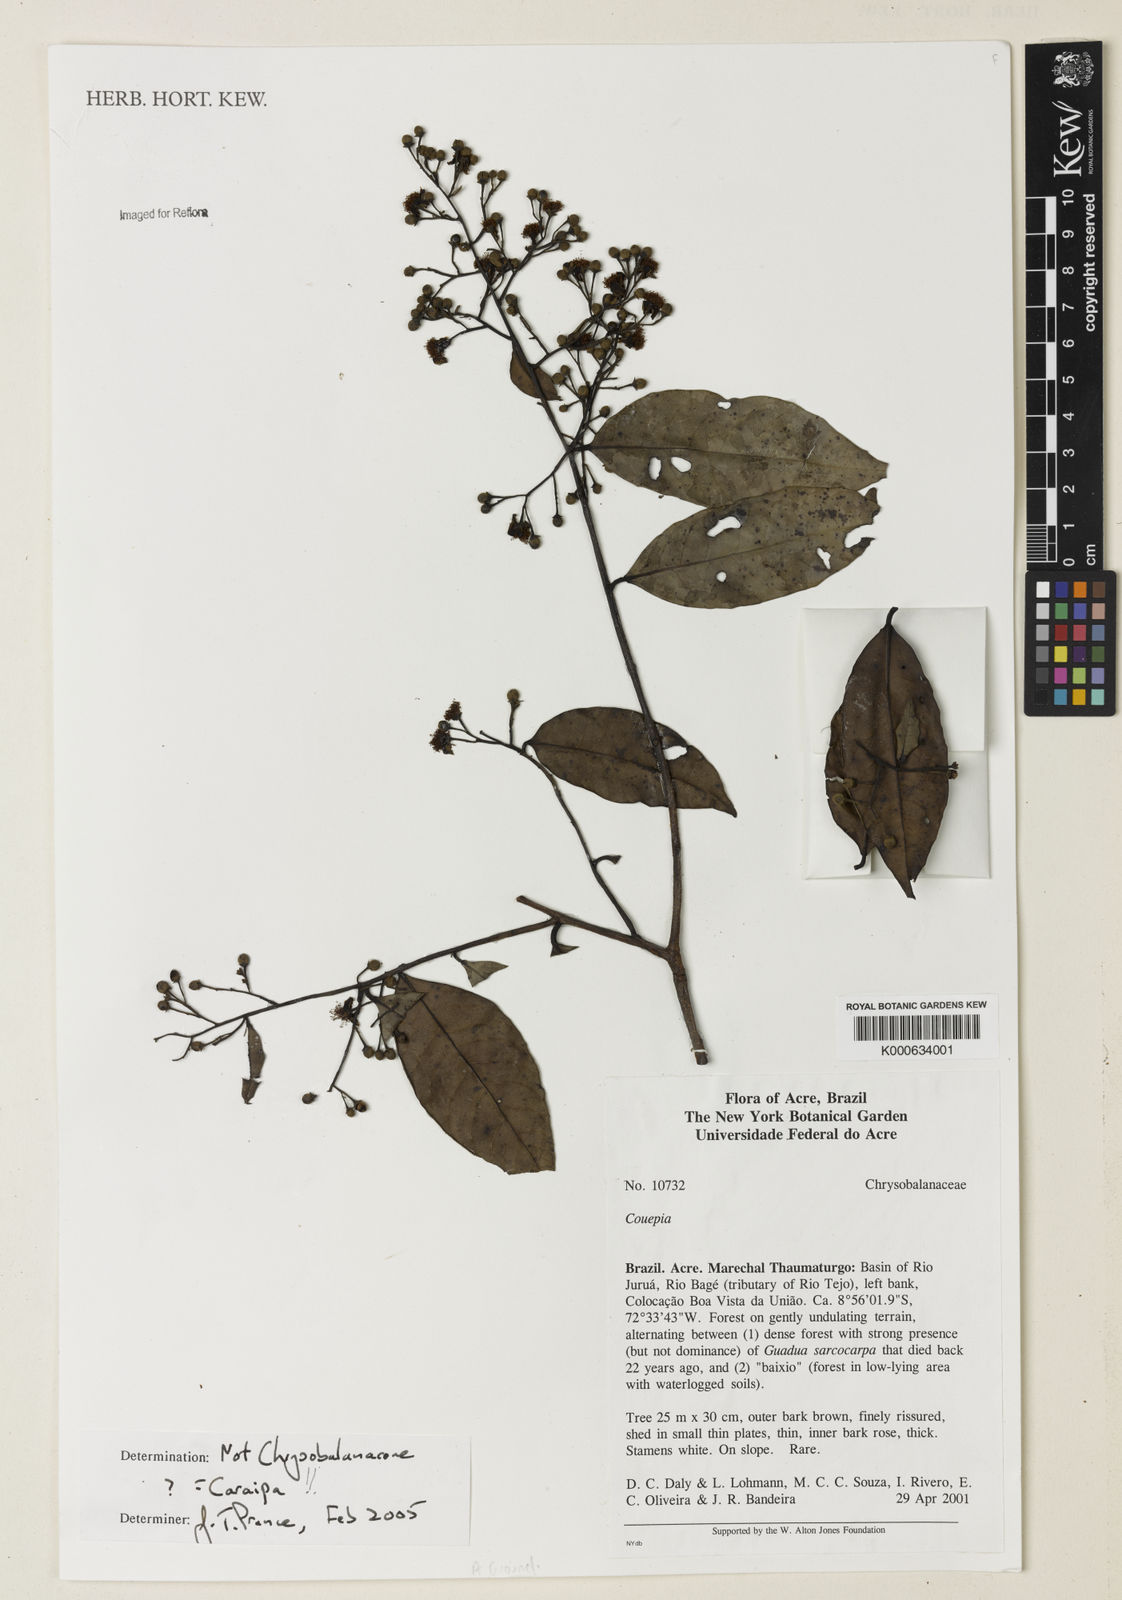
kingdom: Plantae
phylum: Tracheophyta
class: Magnoliopsida
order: Malpighiales
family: Calophyllaceae
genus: Caraipa
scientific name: Caraipa densifolia
